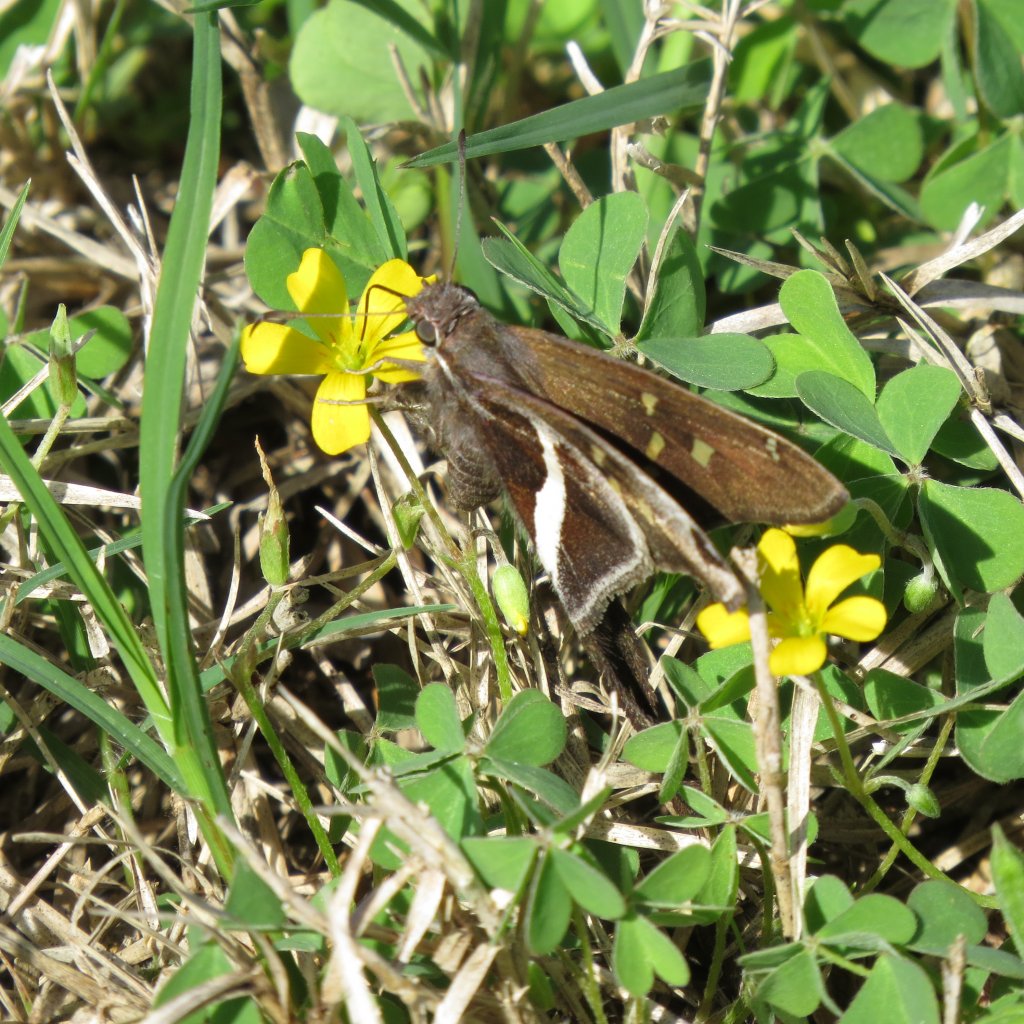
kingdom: Animalia
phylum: Arthropoda
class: Insecta
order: Lepidoptera
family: Hesperiidae
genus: Chioides
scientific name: Chioides catillus
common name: White-striped Longtail
